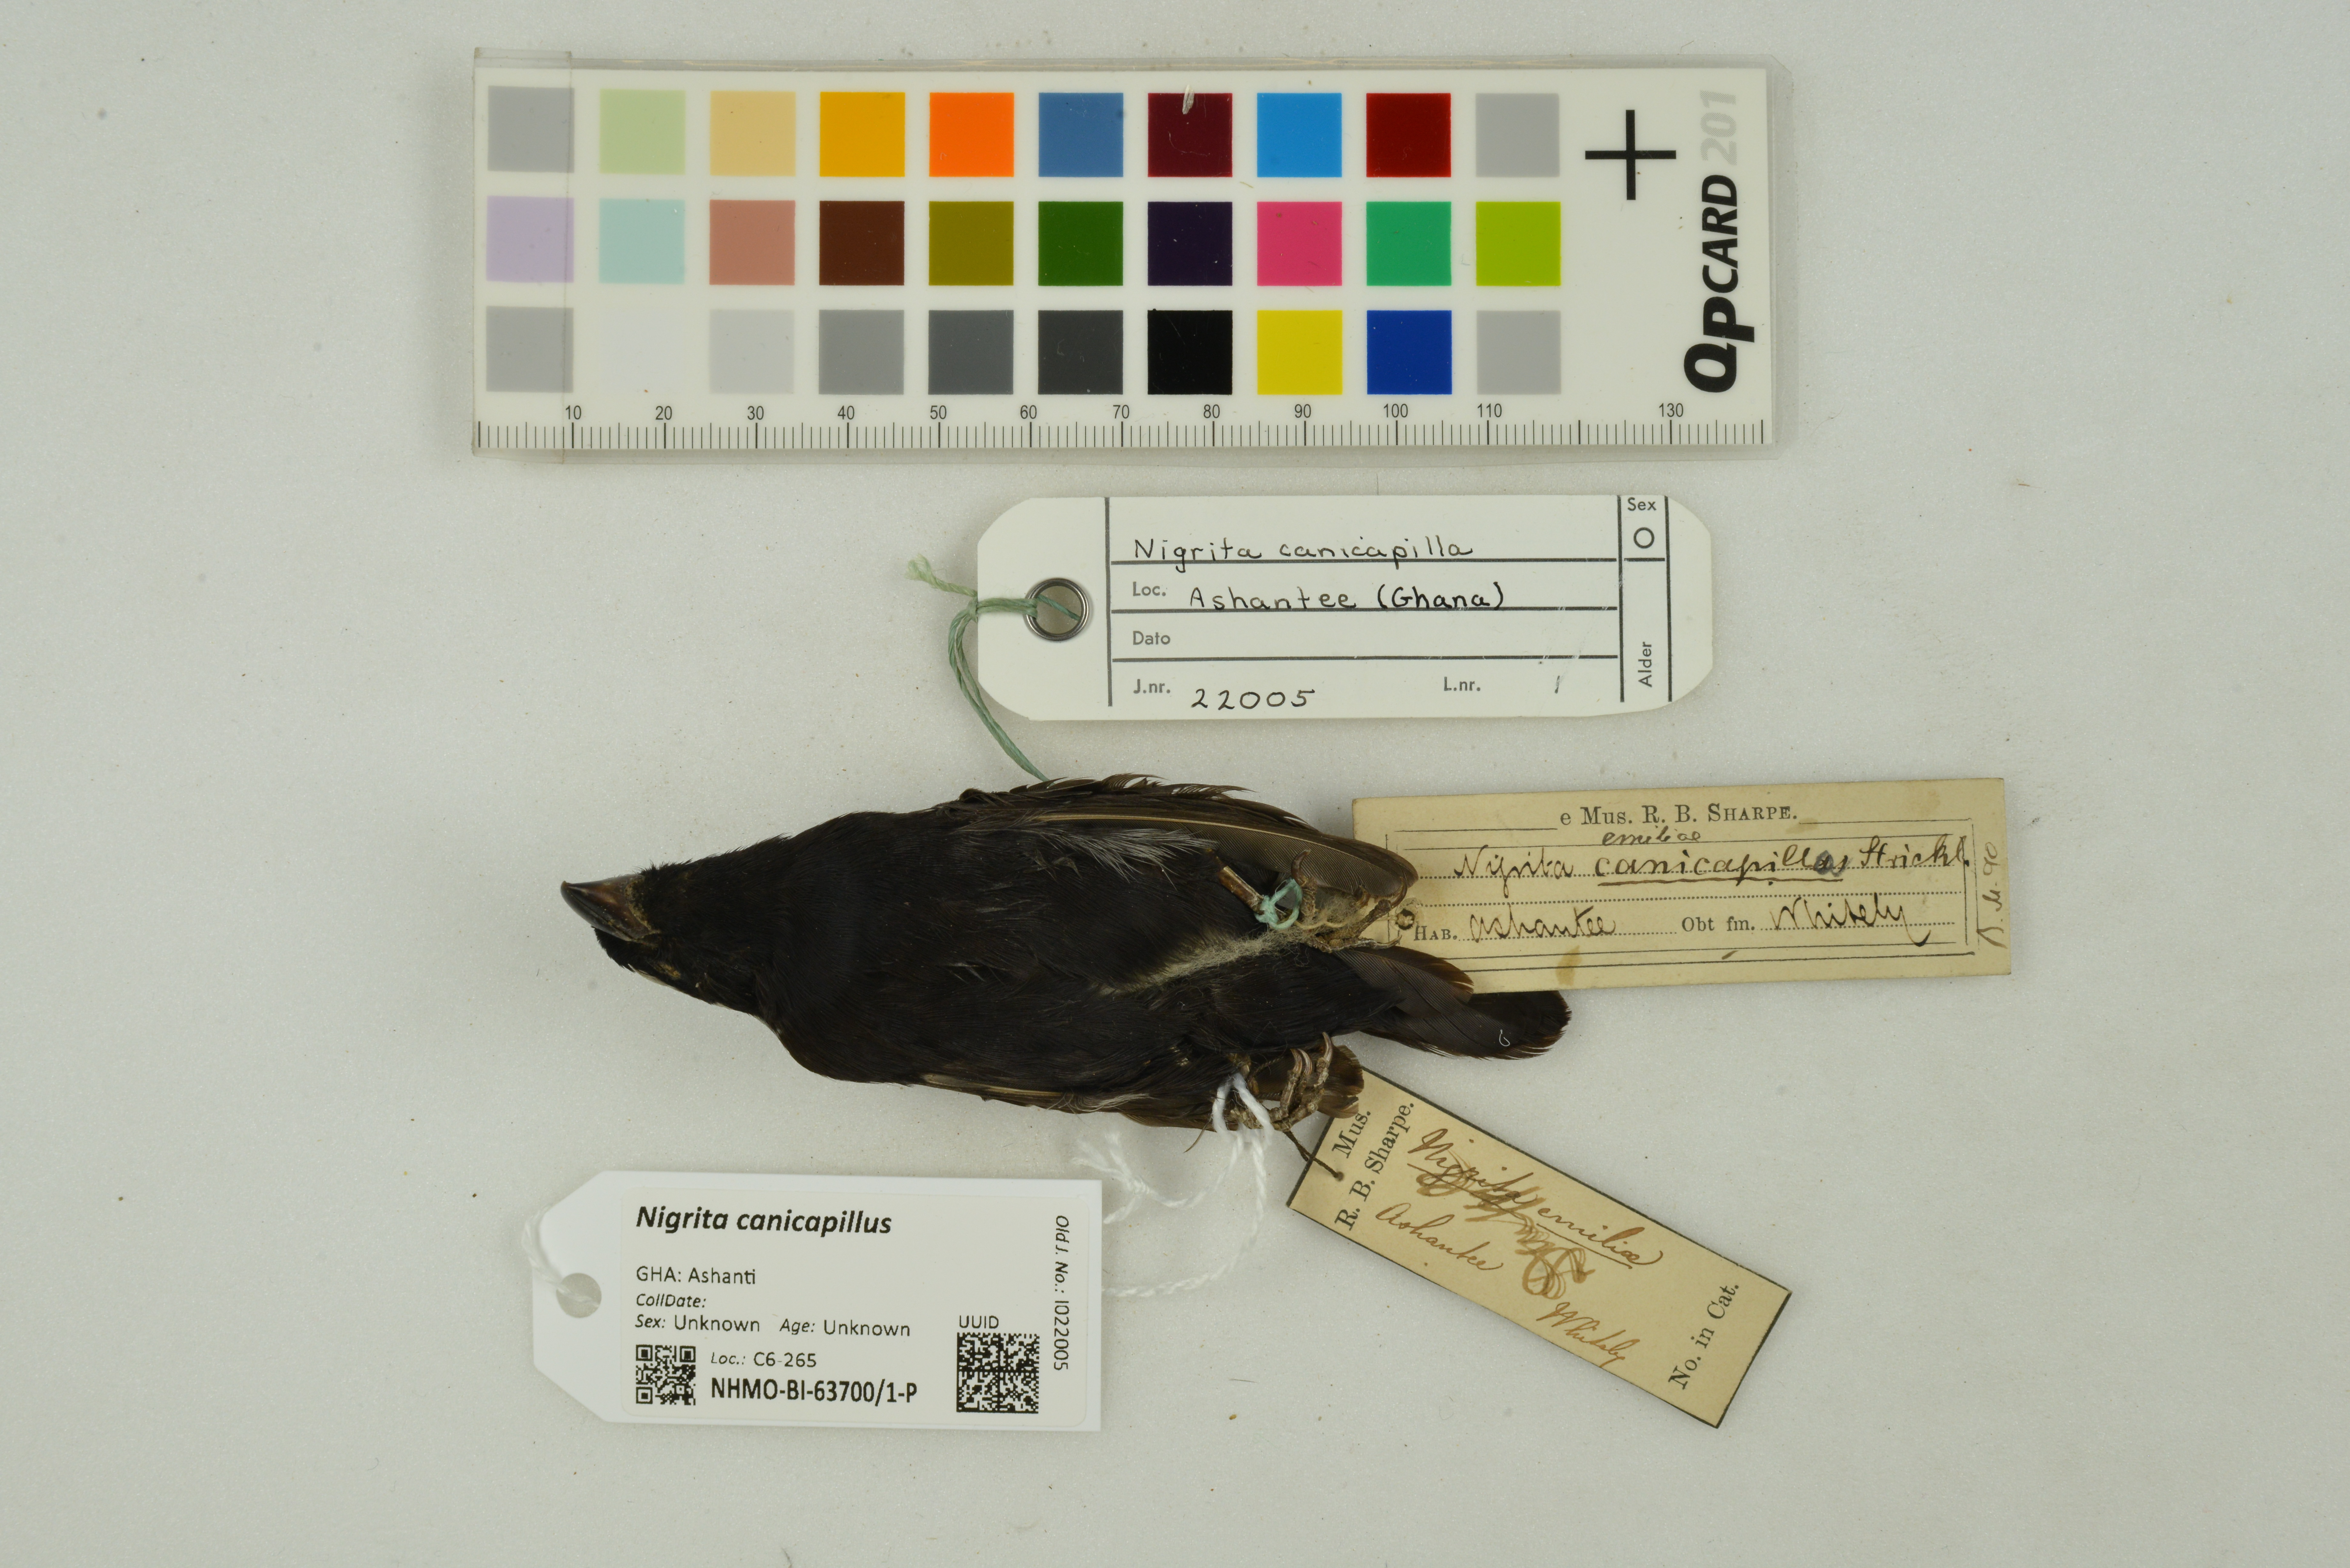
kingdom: Animalia
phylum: Chordata
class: Aves
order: Passeriformes
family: Estrildidae
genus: Nigrita
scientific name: Nigrita canicapillus
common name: Grey-headed nigrita
